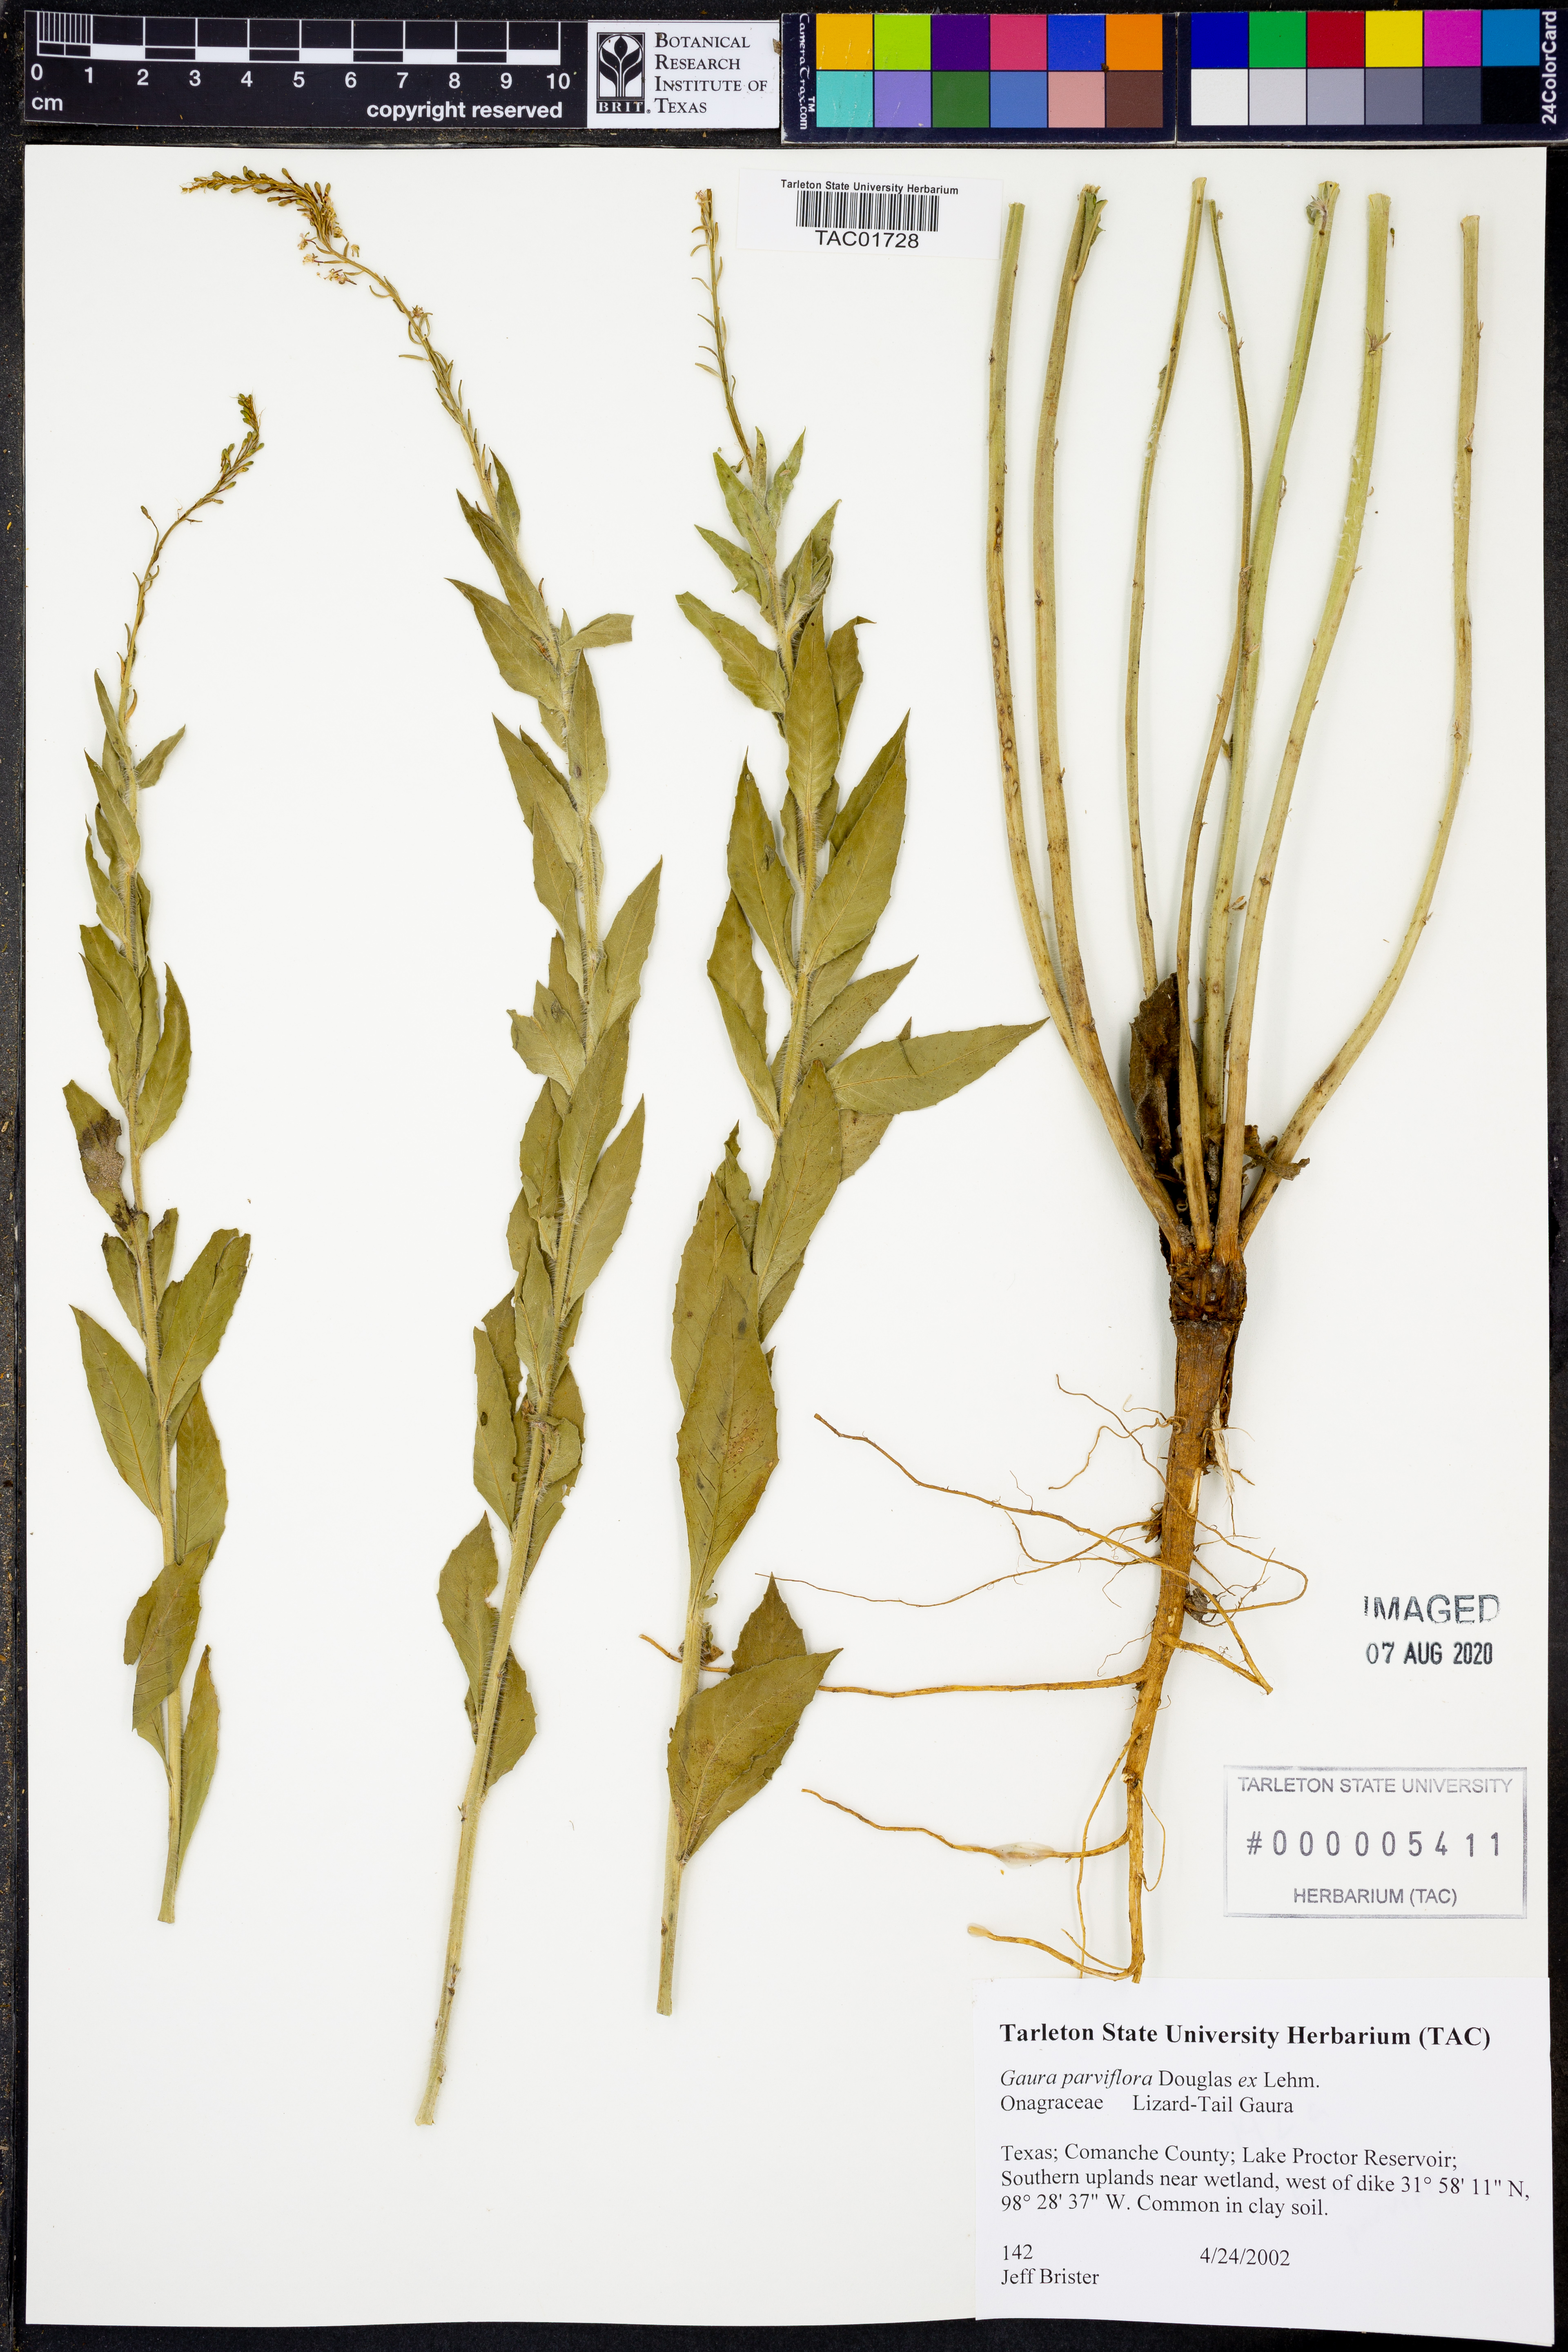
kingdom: Plantae
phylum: Tracheophyta
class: Magnoliopsida
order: Myrtales
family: Onagraceae
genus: Oenothera
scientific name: Oenothera curtiflora
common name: Velvetweed
